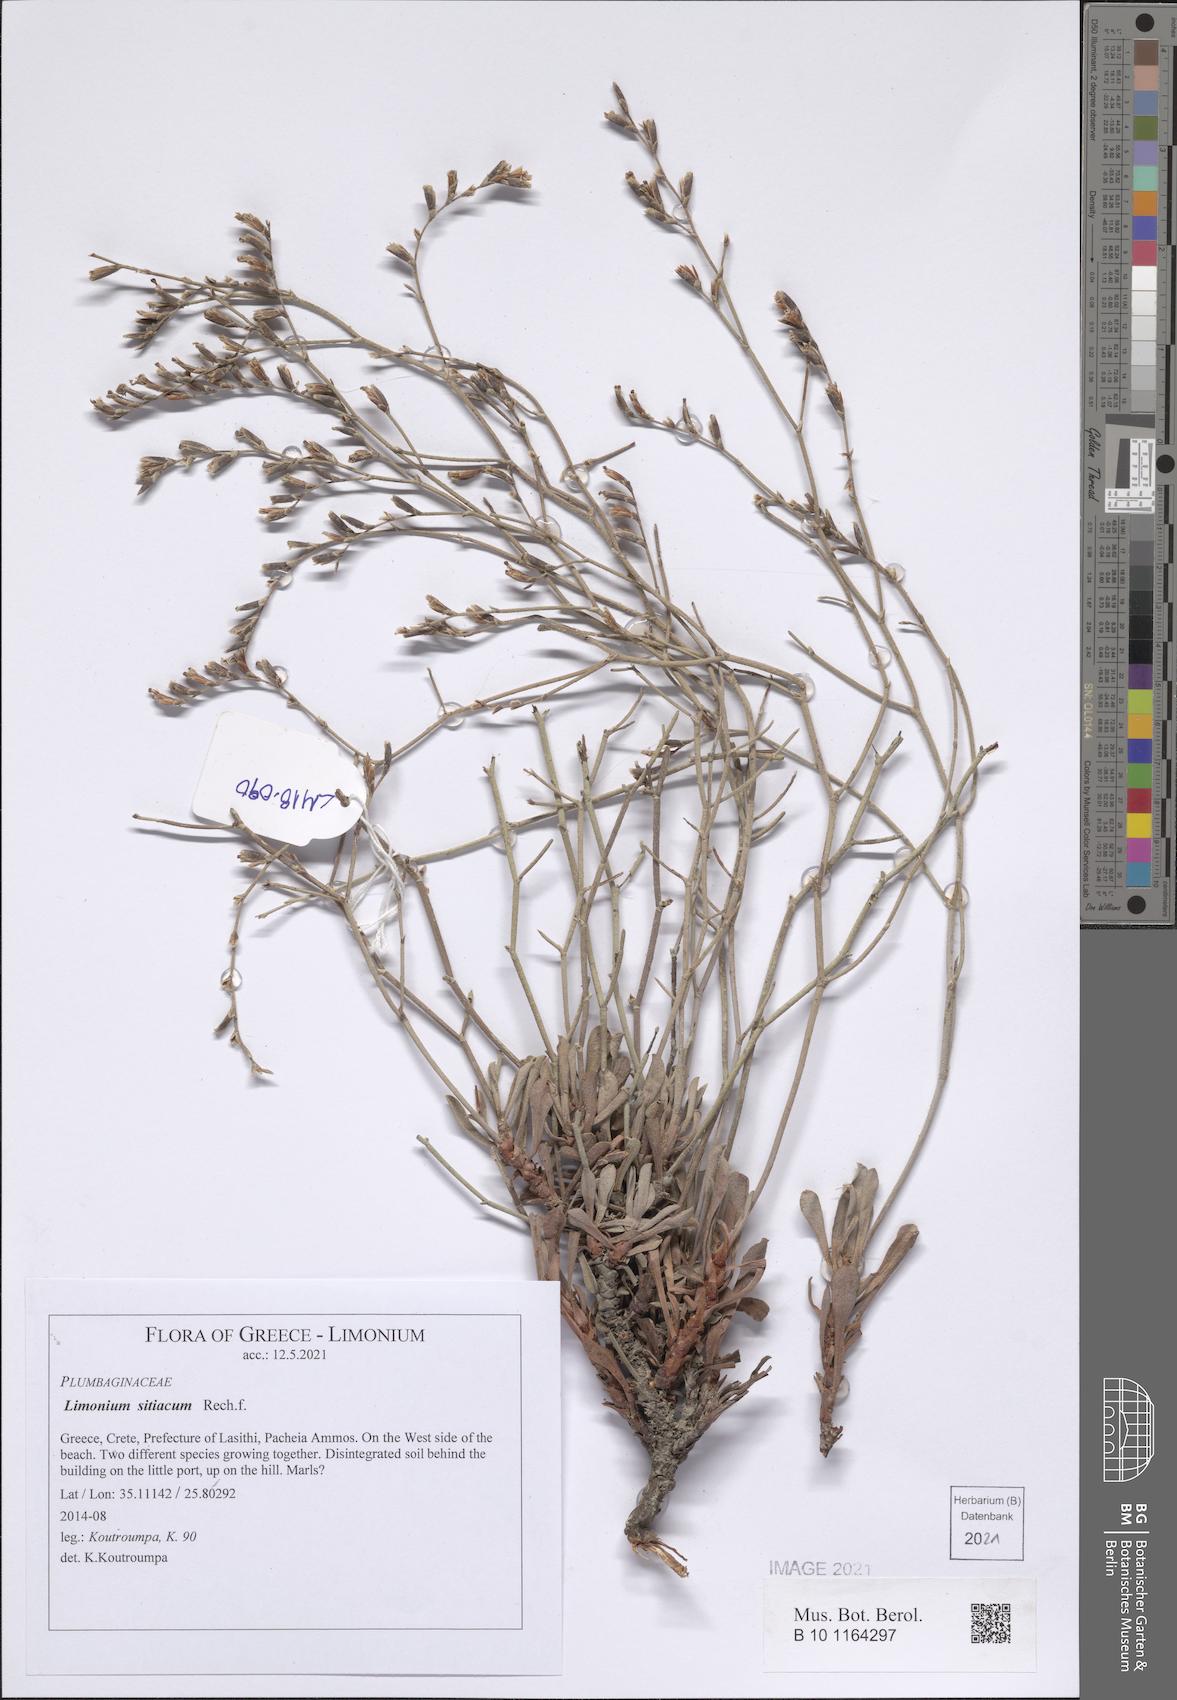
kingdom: Plantae
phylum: Tracheophyta
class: Magnoliopsida
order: Caryophyllales
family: Plumbaginaceae
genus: Limonium
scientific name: Limonium sitiacum
